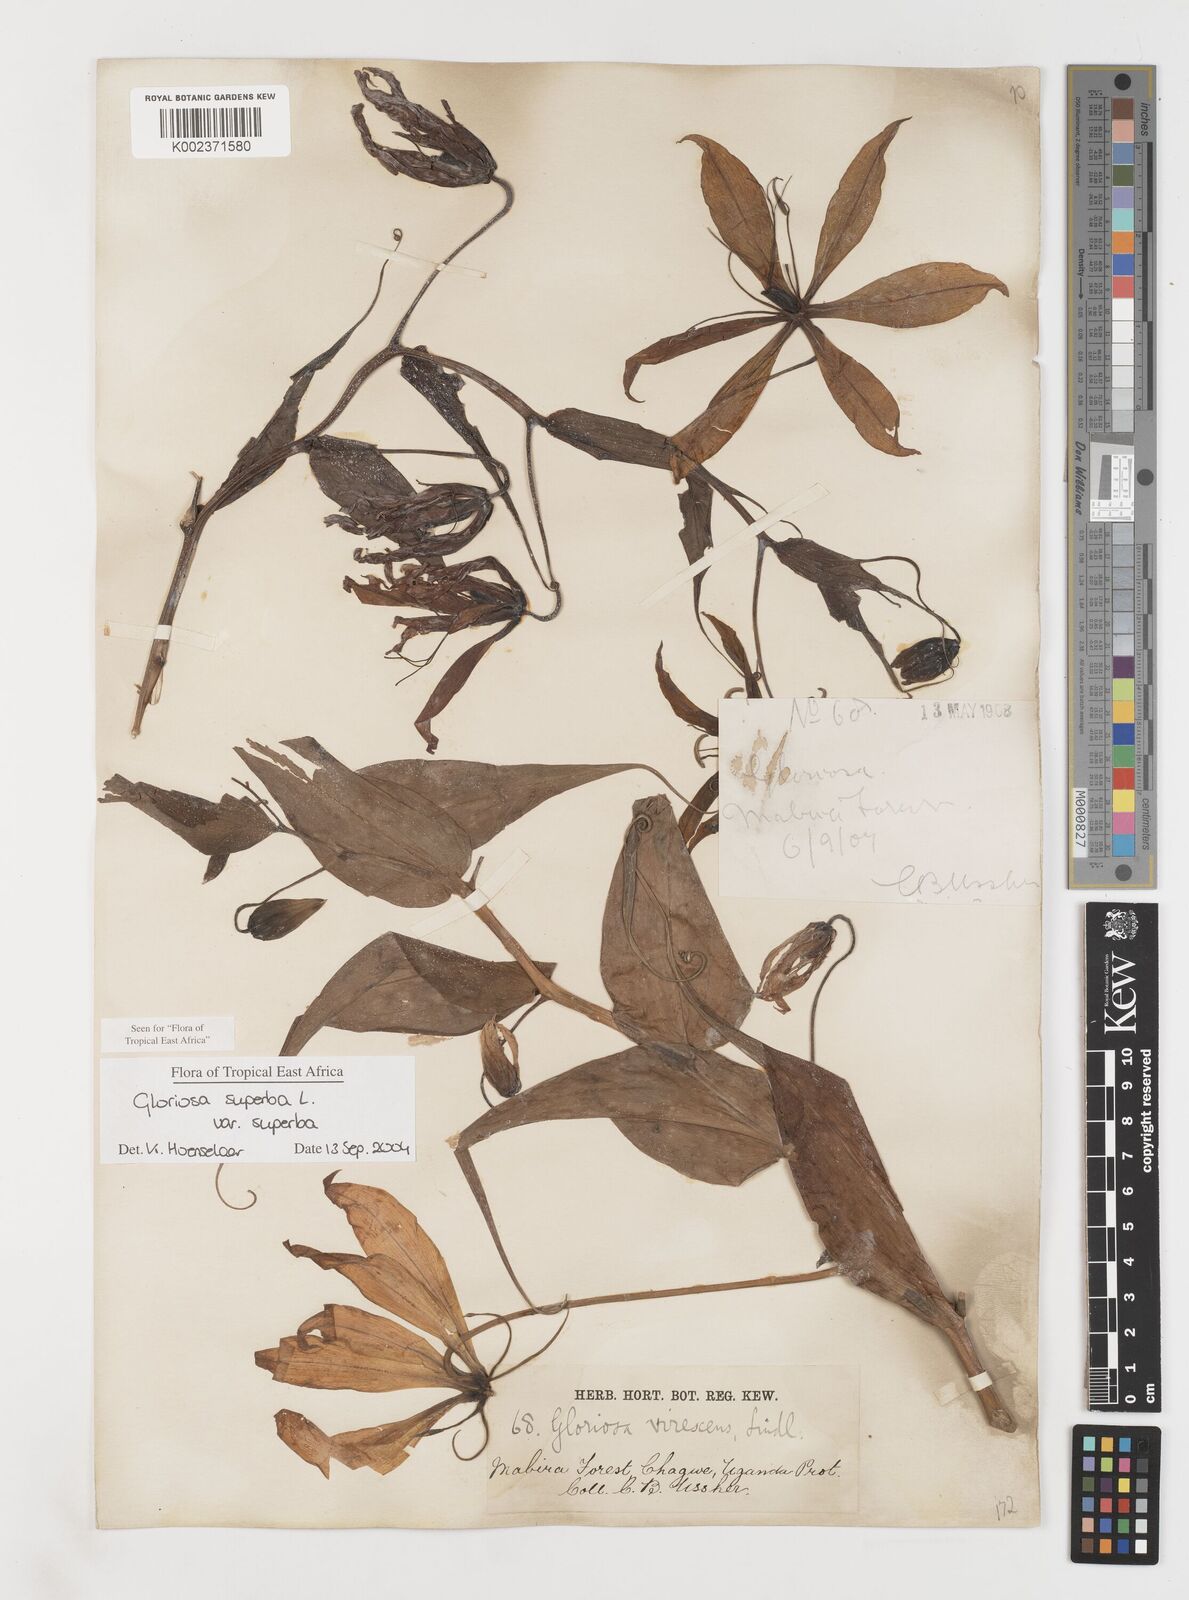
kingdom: Plantae
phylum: Tracheophyta
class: Liliopsida
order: Liliales
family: Colchicaceae
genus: Gloriosa
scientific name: Gloriosa simplex
